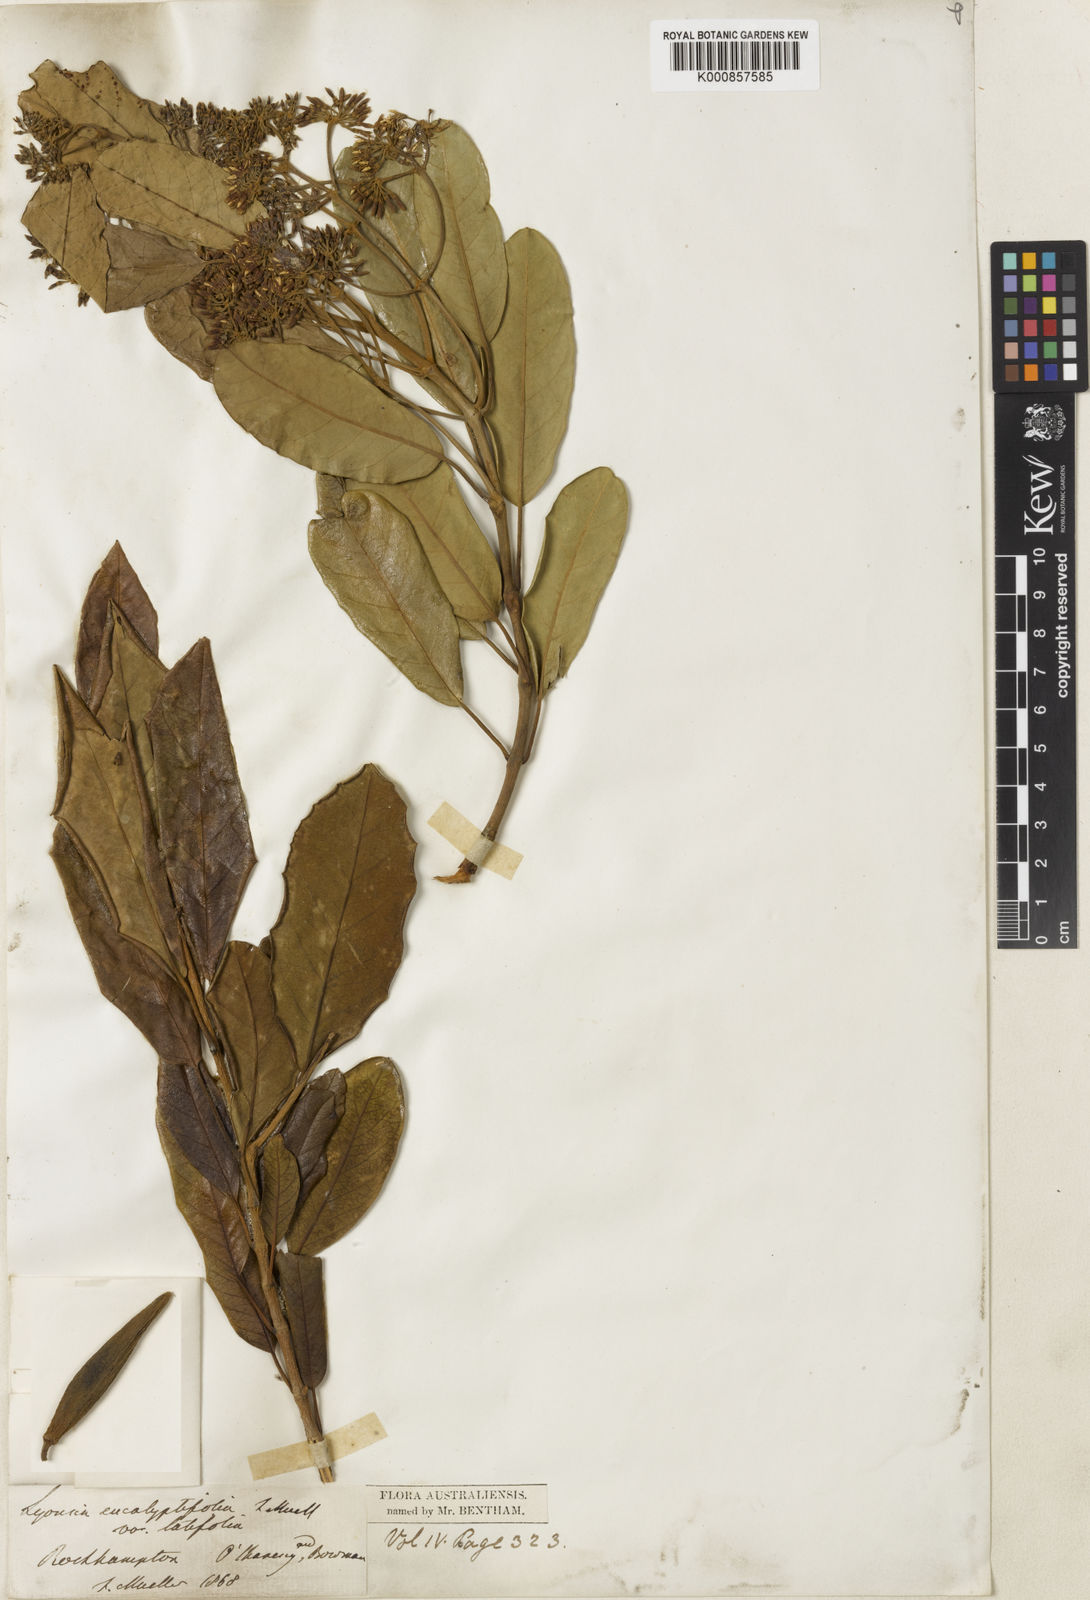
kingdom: Plantae
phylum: Tracheophyta
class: Magnoliopsida
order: Gentianales
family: Apocynaceae
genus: Parsonsia
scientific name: Parsonsia plaesiophylla
